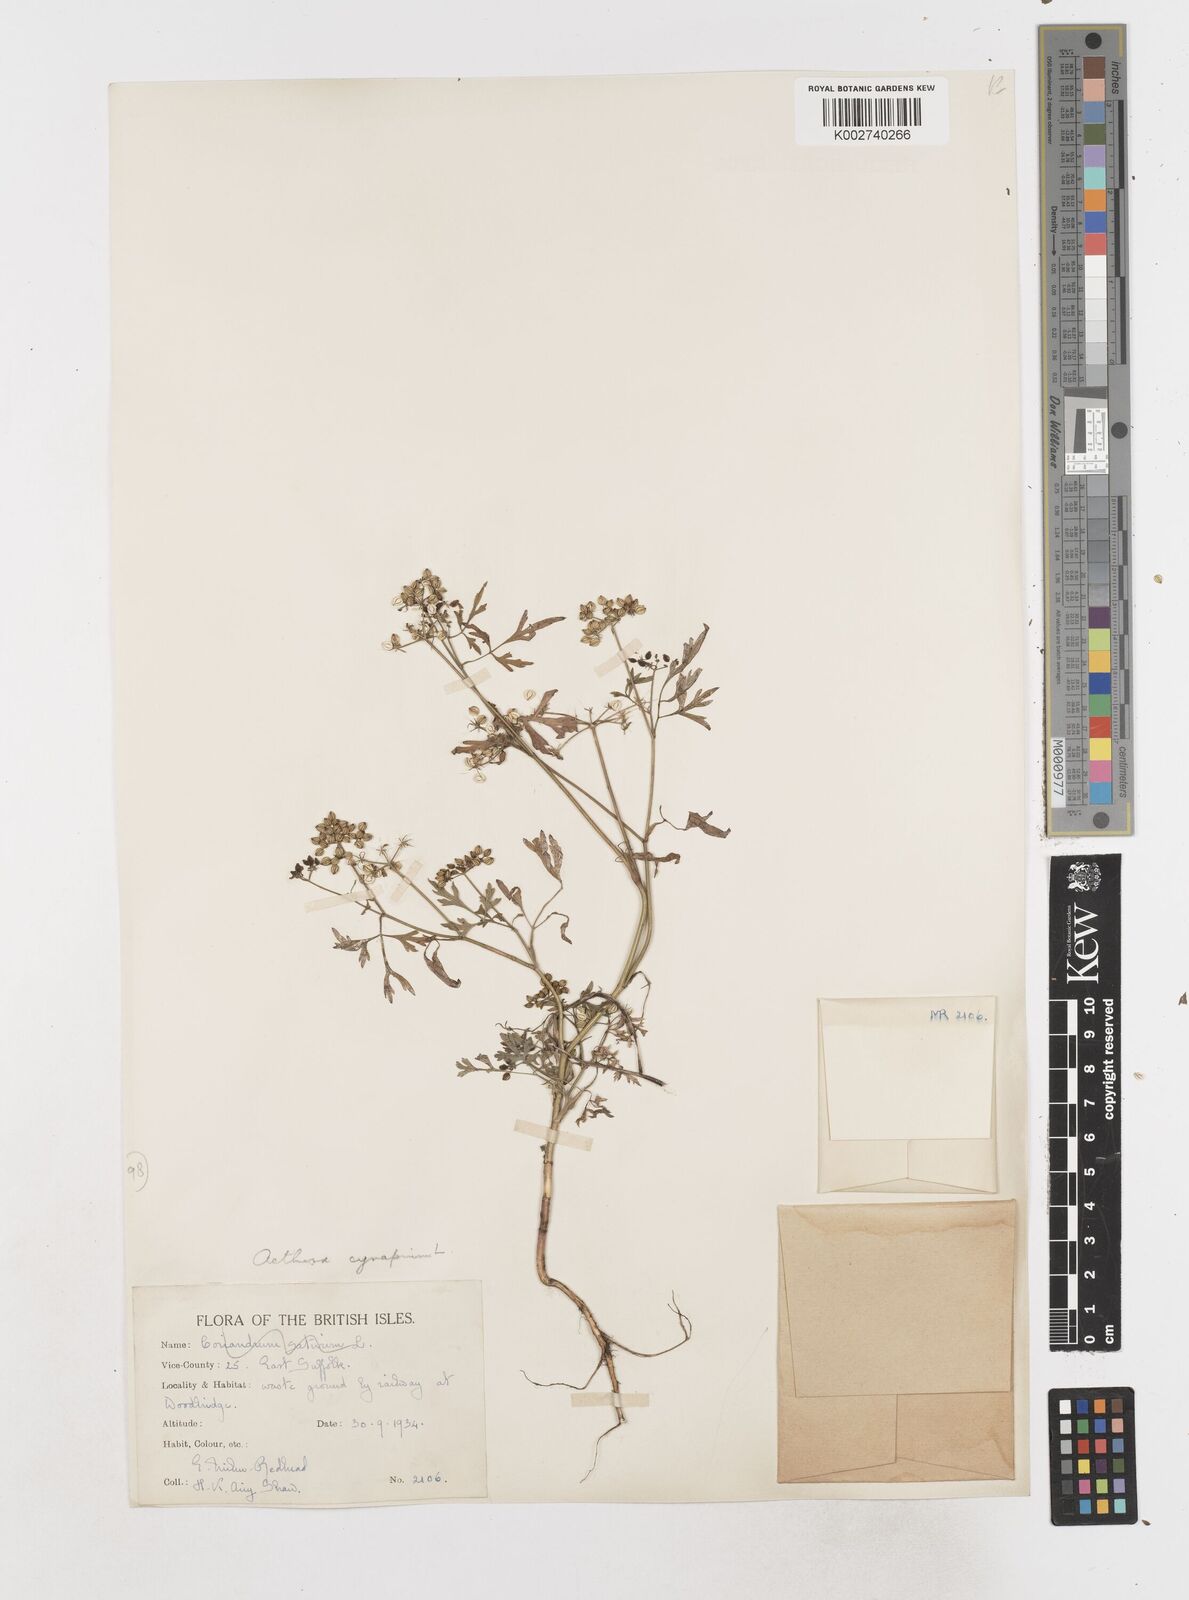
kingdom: Plantae
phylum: Tracheophyta
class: Magnoliopsida
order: Apiales
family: Apiaceae
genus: Aethusa
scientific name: Aethusa cynapium
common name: Fool's parsley
